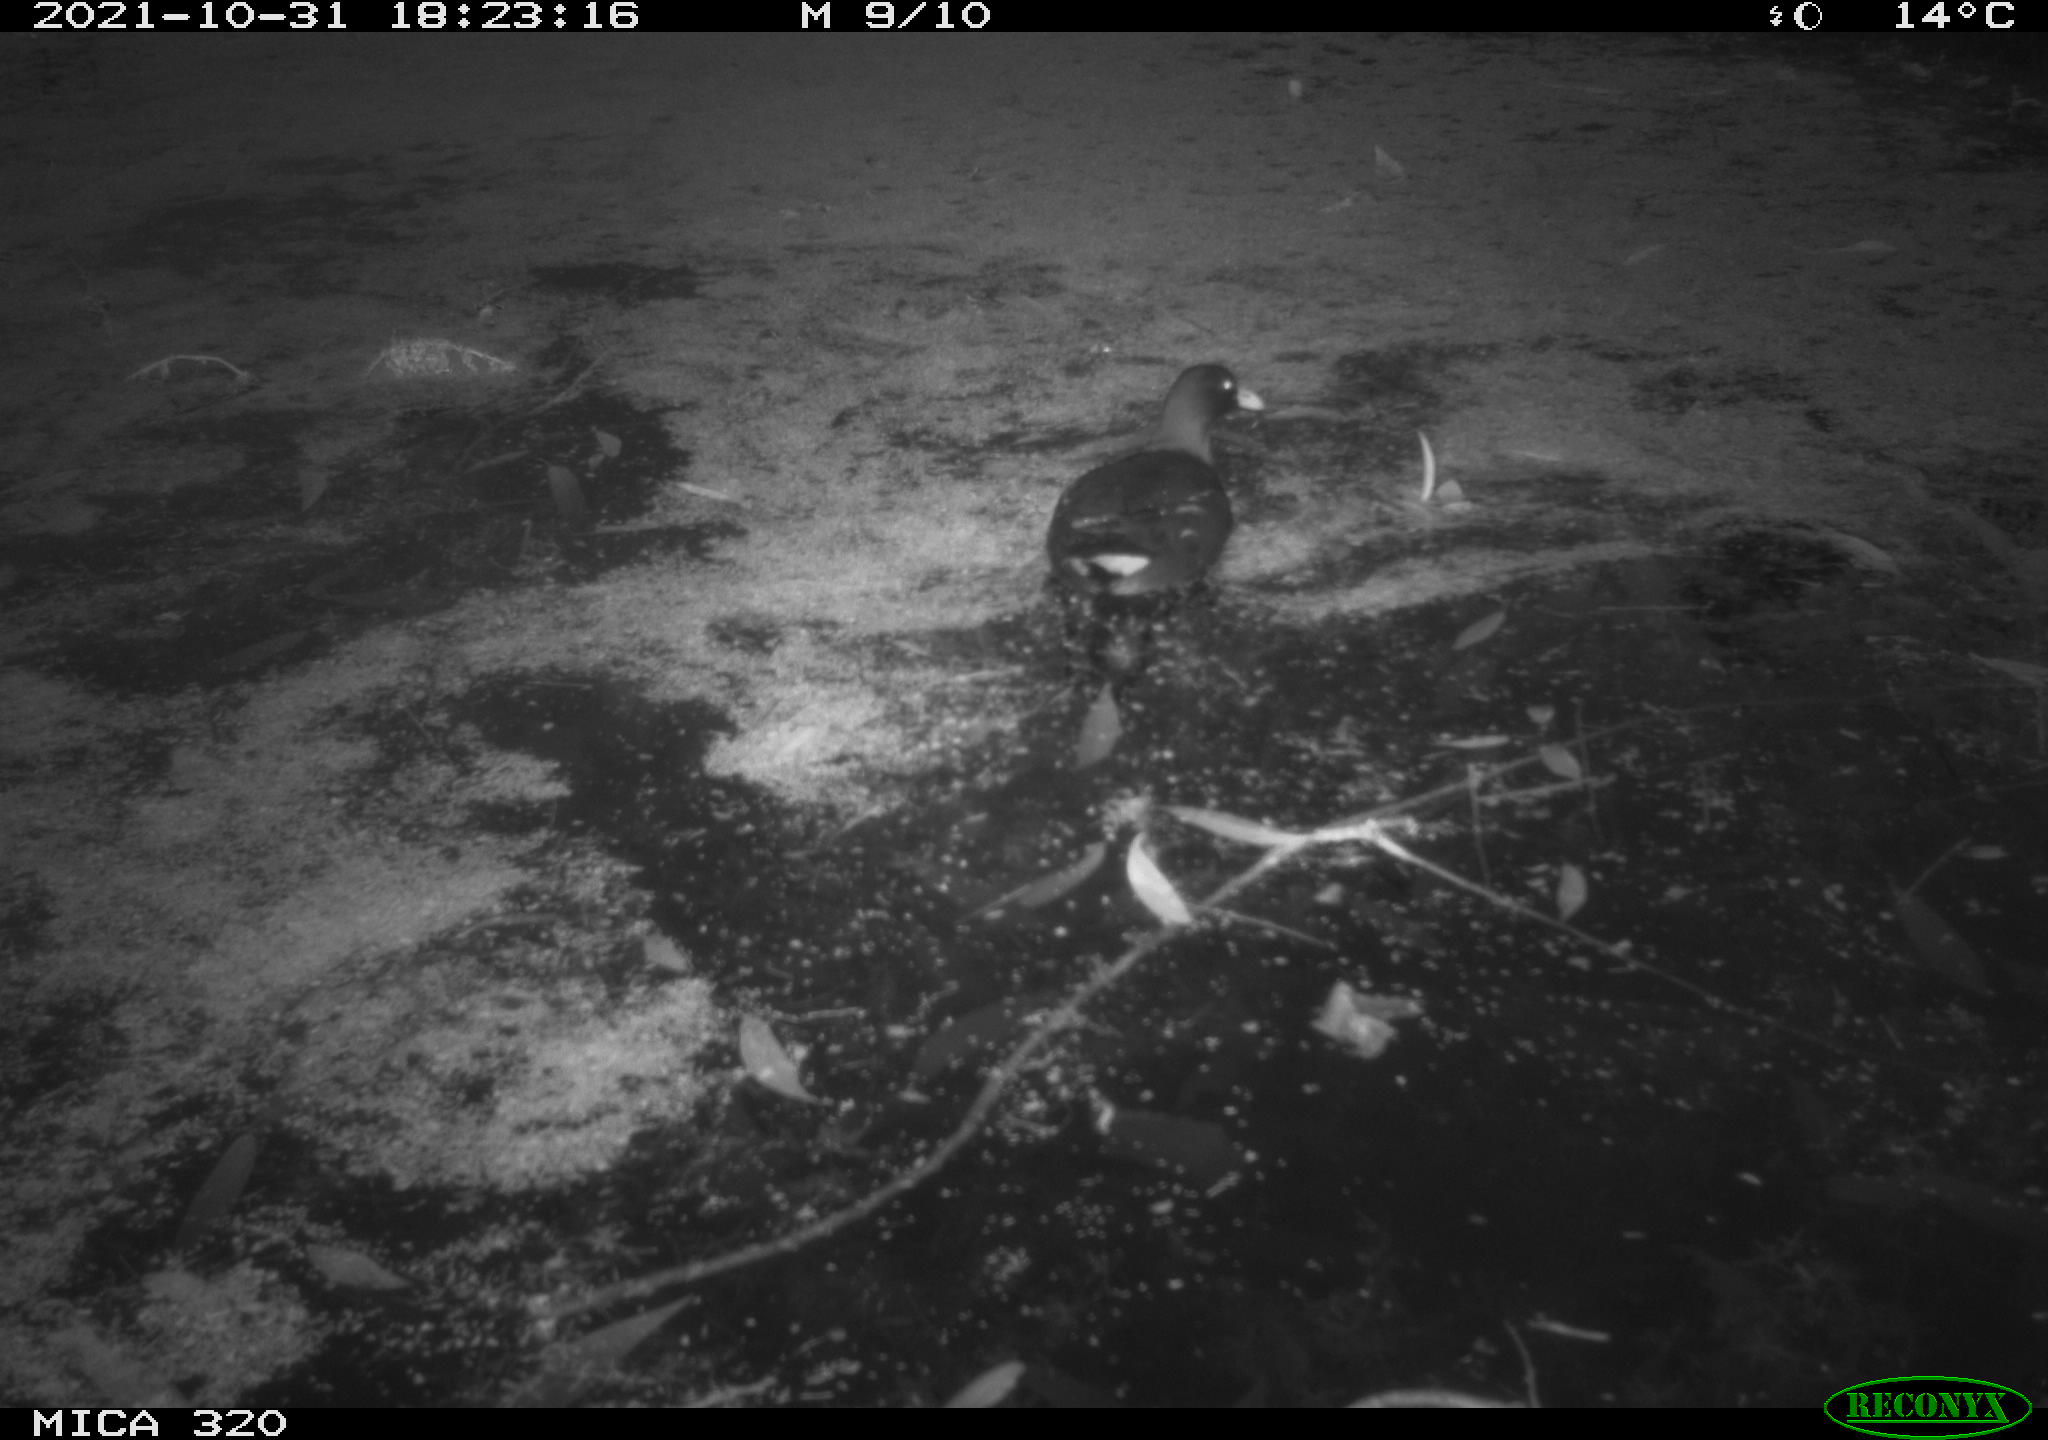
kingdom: Animalia
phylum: Chordata
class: Aves
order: Gruiformes
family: Rallidae
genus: Gallinula
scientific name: Gallinula chloropus
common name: Common moorhen
